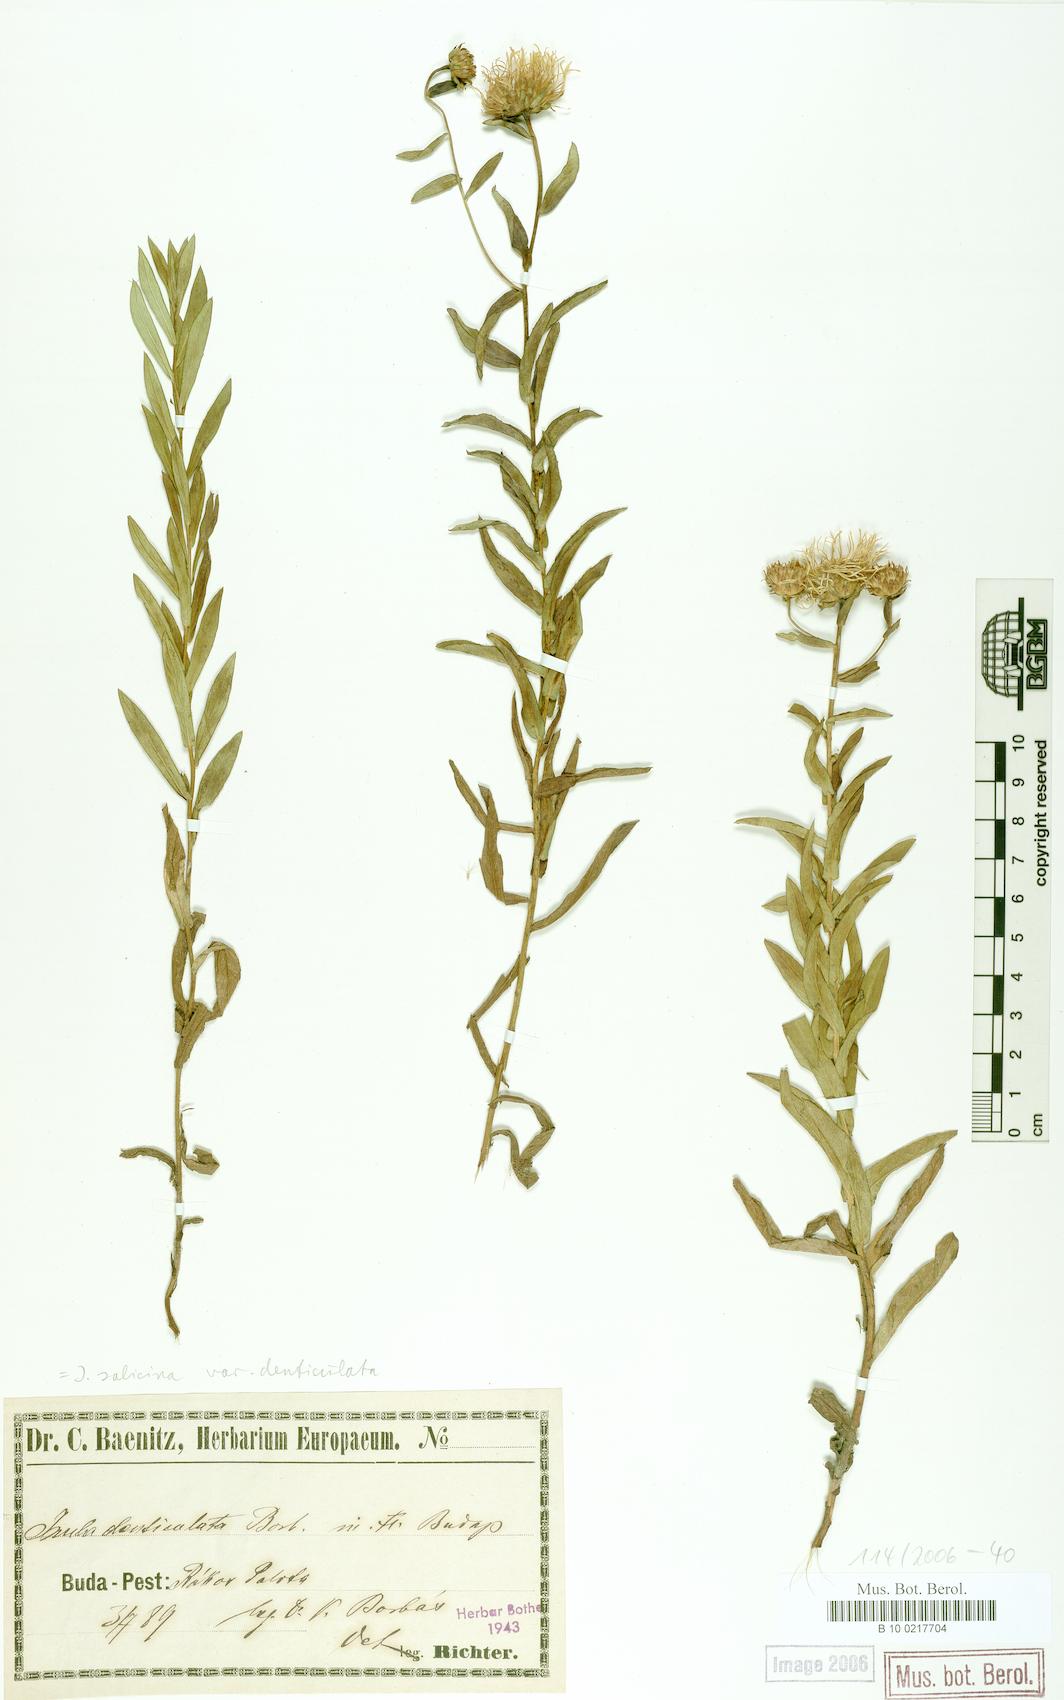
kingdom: Plantae
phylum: Tracheophyta
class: Magnoliopsida
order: Asterales
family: Asteraceae
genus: Pentanema
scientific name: Pentanema salicinum
